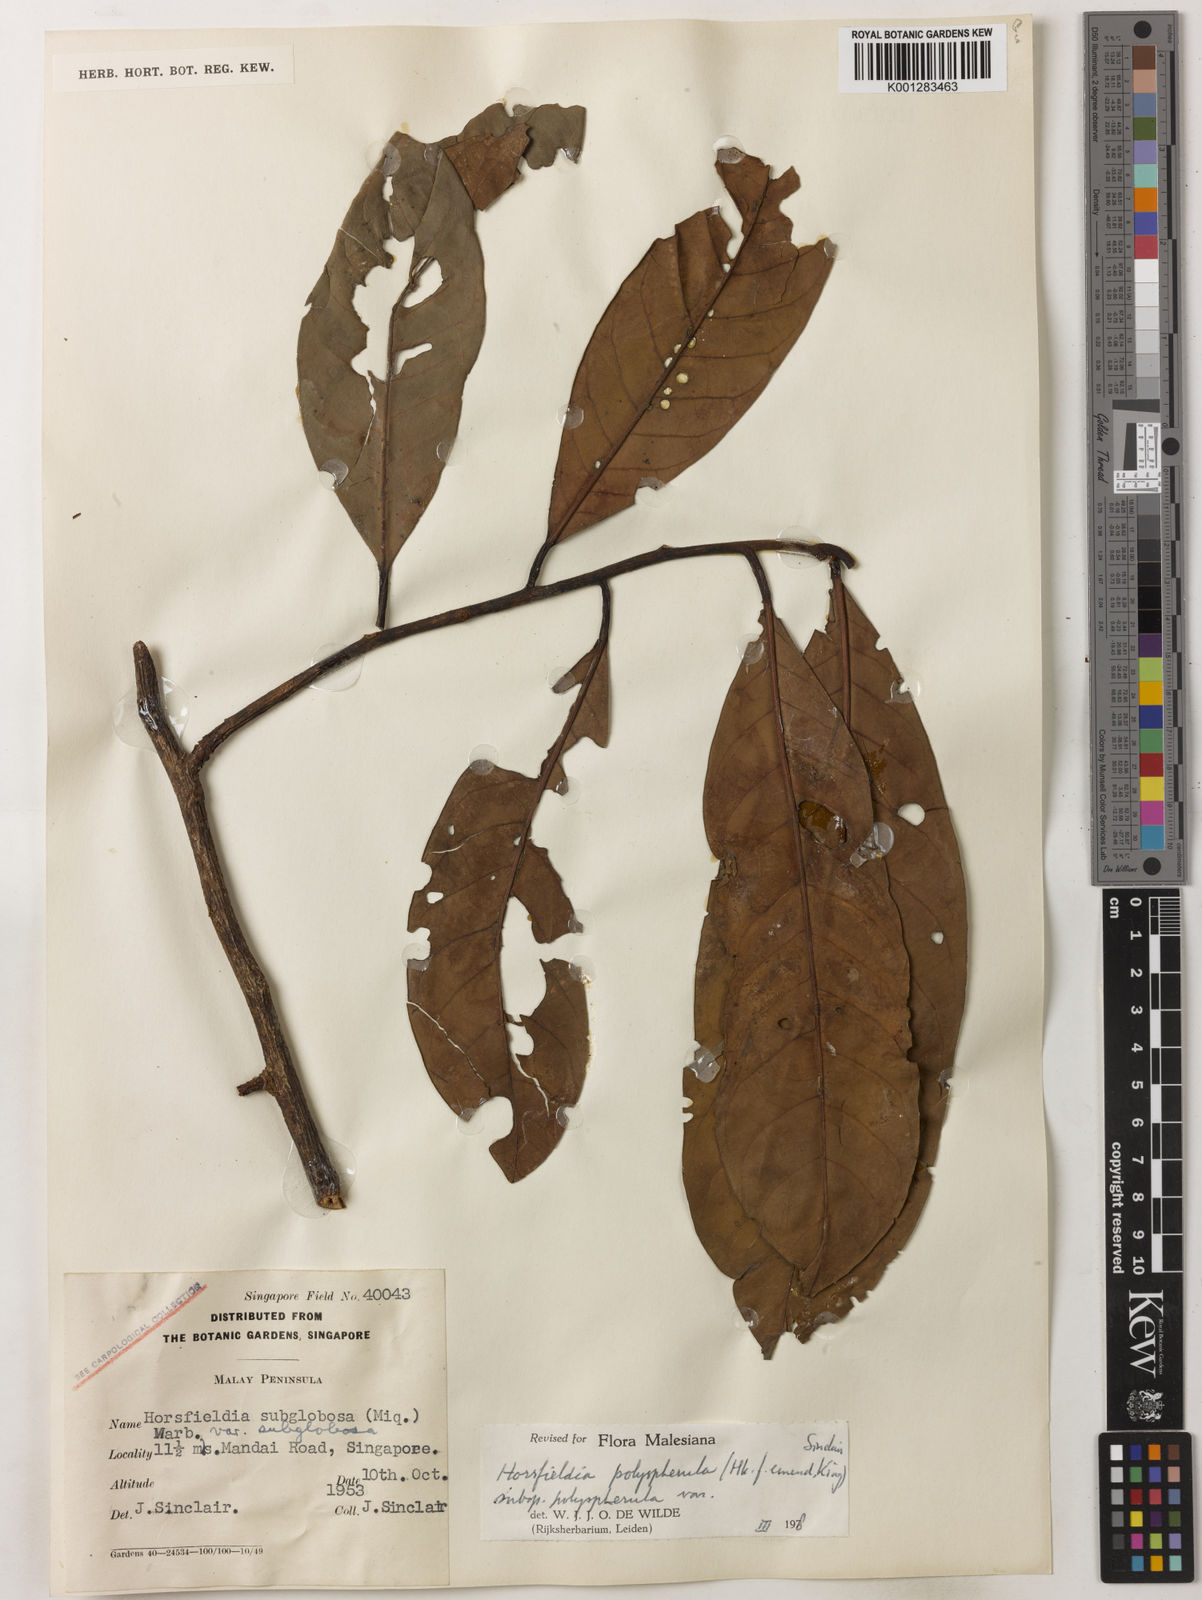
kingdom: Plantae
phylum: Tracheophyta
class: Magnoliopsida
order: Magnoliales
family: Myristicaceae
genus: Horsfieldia
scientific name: Horsfieldia polyspherula
